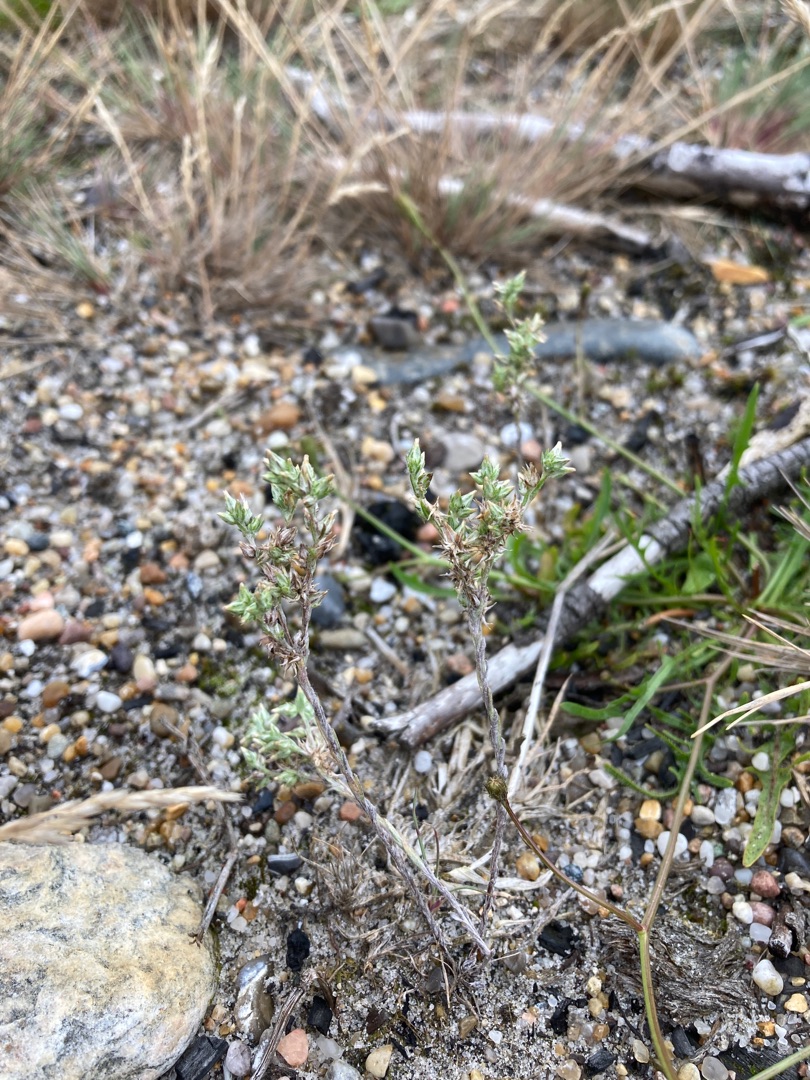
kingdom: Plantae
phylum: Tracheophyta
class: Magnoliopsida
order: Asterales
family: Asteraceae
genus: Logfia
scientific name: Logfia minima
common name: Liden museurt
